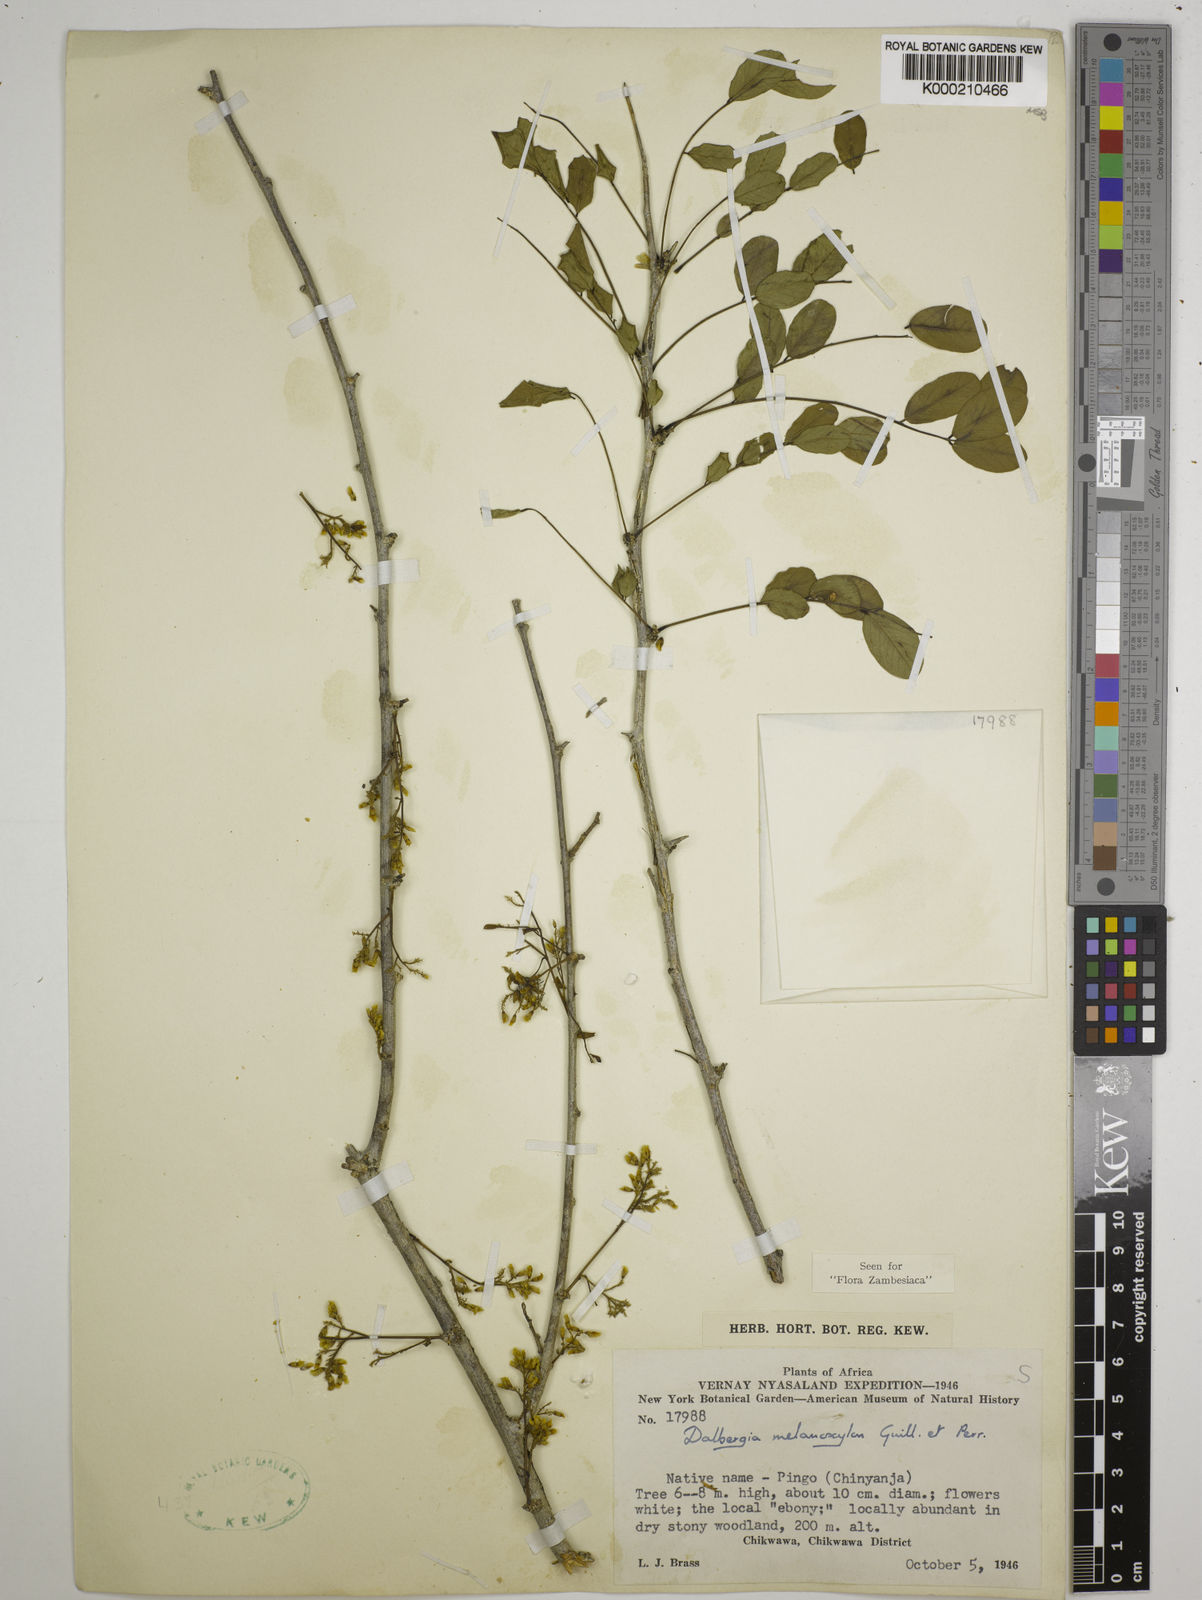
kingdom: Plantae
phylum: Tracheophyta
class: Magnoliopsida
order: Fabales
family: Fabaceae
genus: Dalbergia
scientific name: Dalbergia melanoxylon
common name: African blackwood
